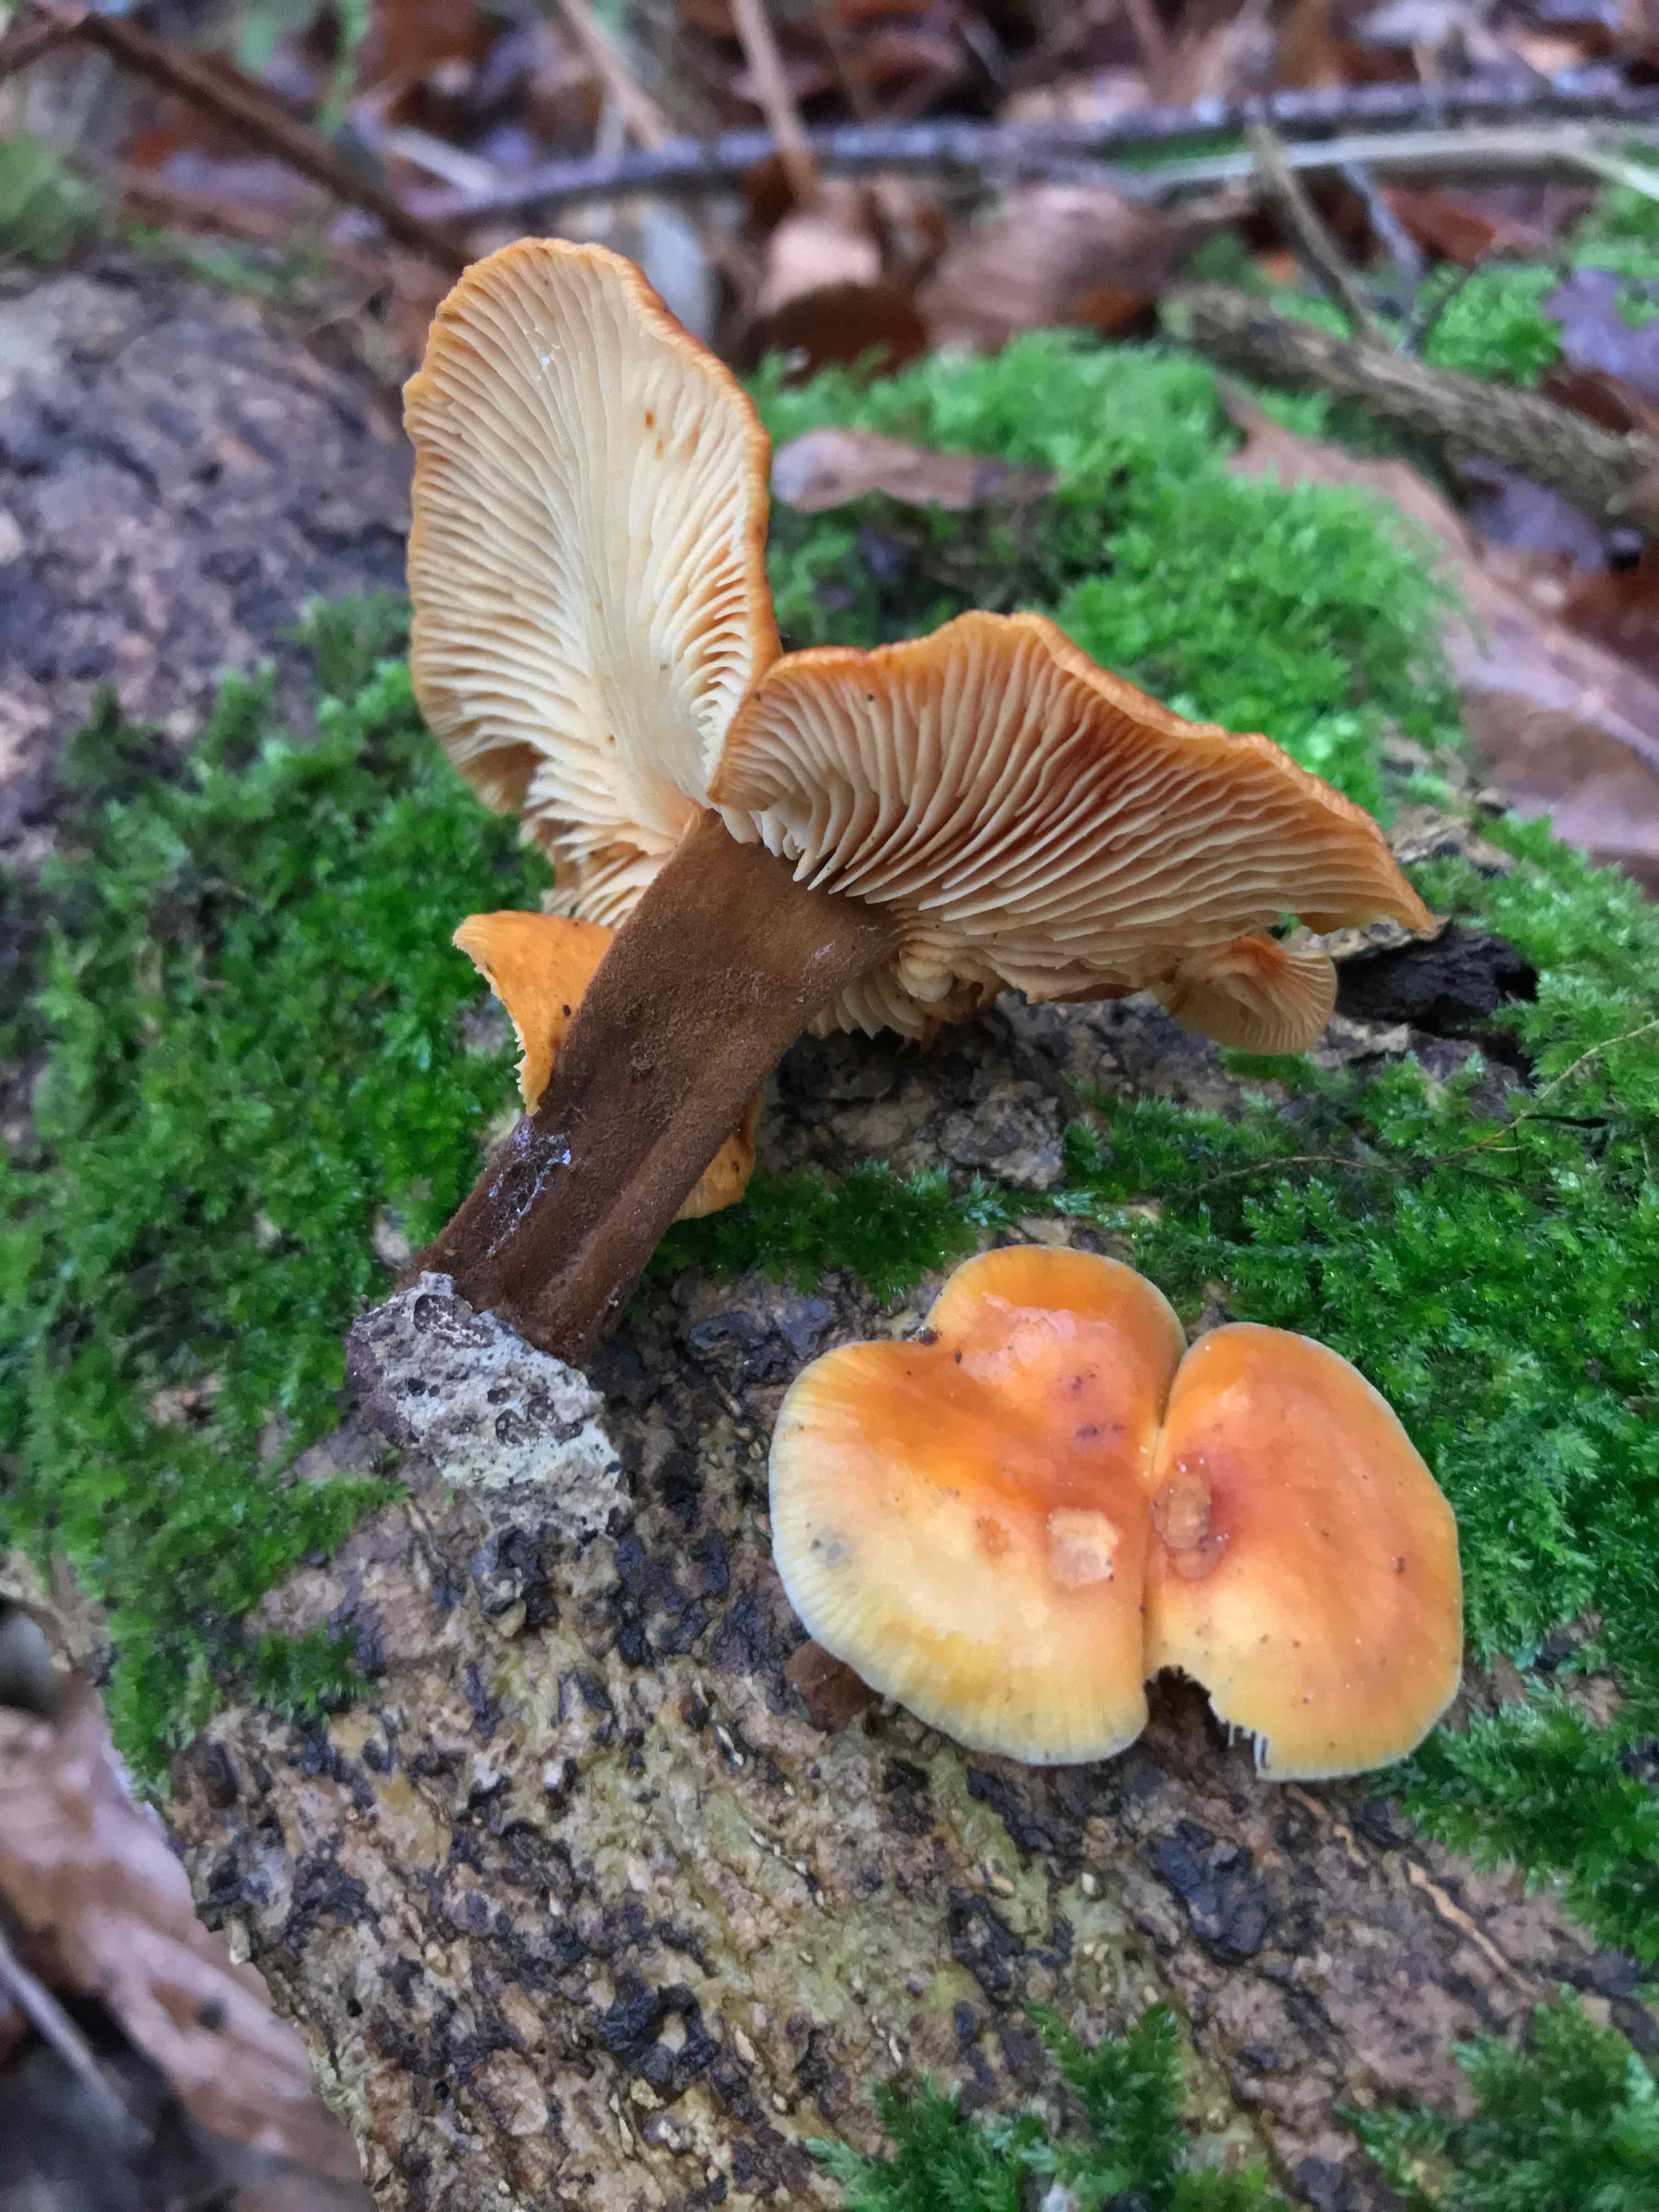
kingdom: Fungi
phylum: Basidiomycota
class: Agaricomycetes
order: Agaricales
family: Physalacriaceae
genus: Flammulina
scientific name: Flammulina velutipes
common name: gul fløjlsfod
